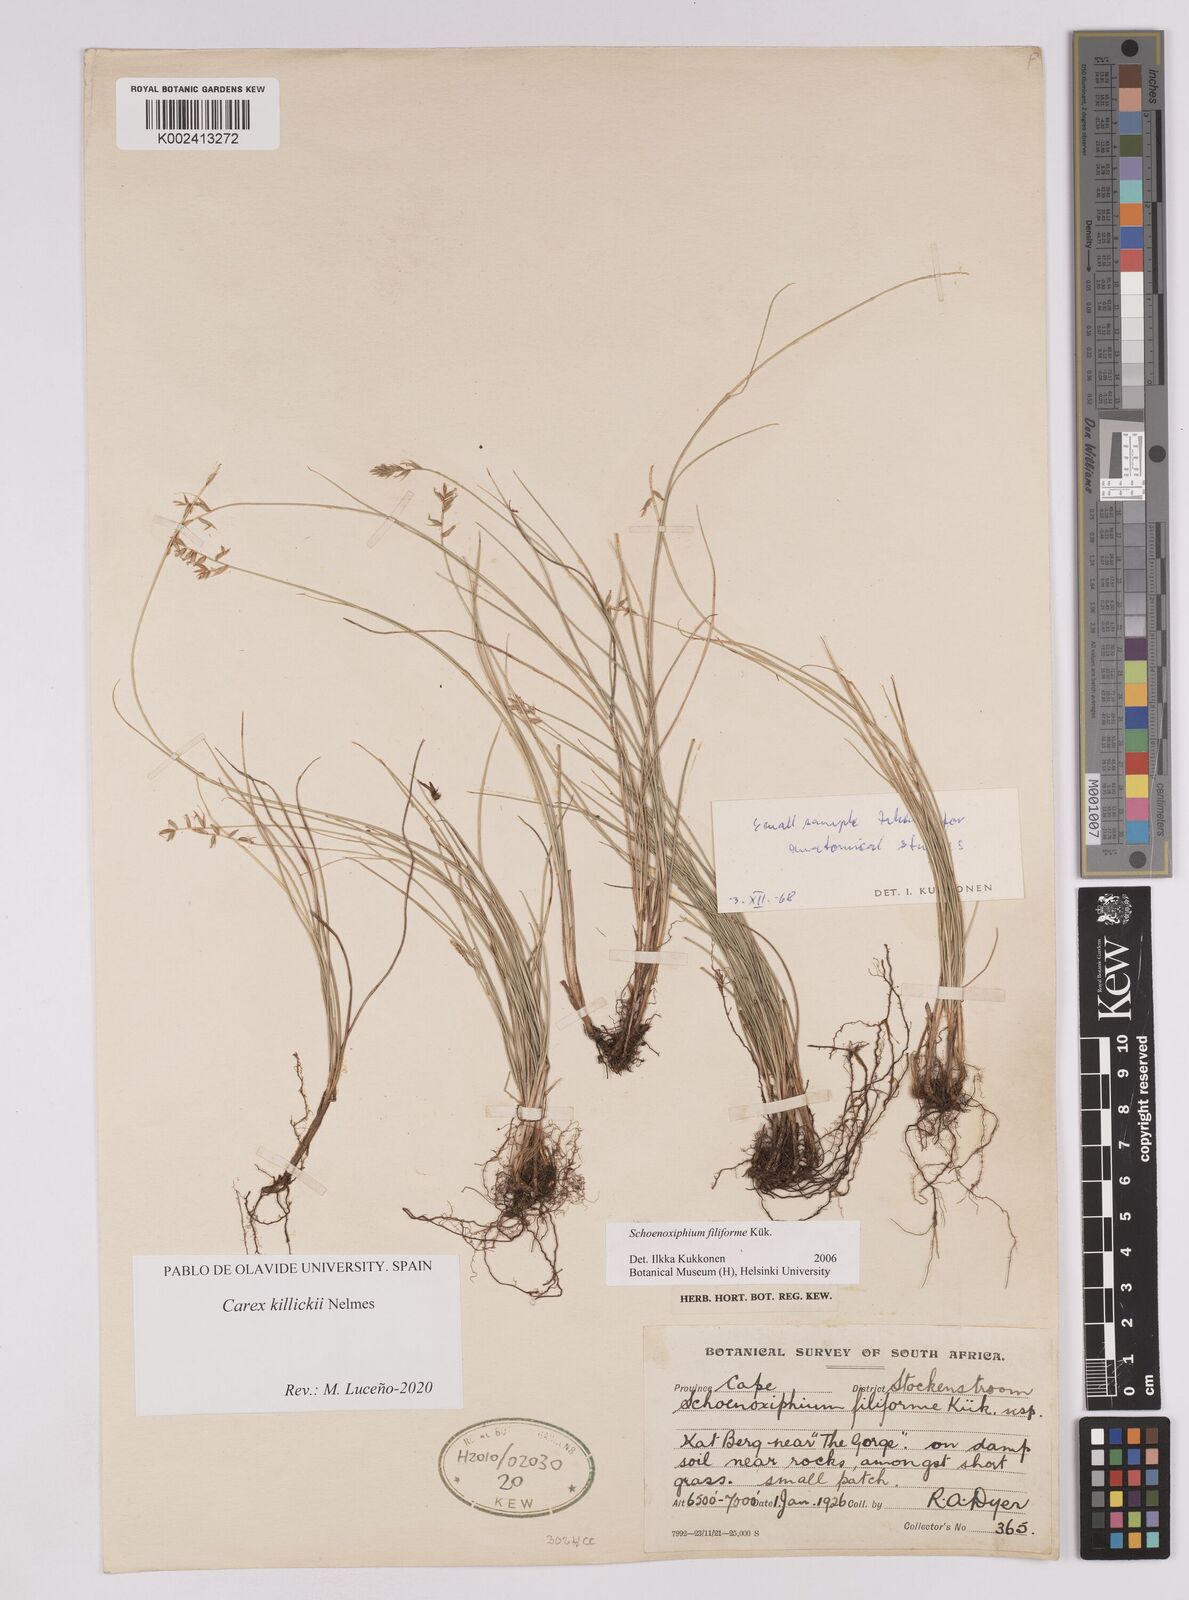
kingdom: Plantae
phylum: Tracheophyta
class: Liliopsida
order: Poales
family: Cyperaceae
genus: Carex
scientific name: Carex
